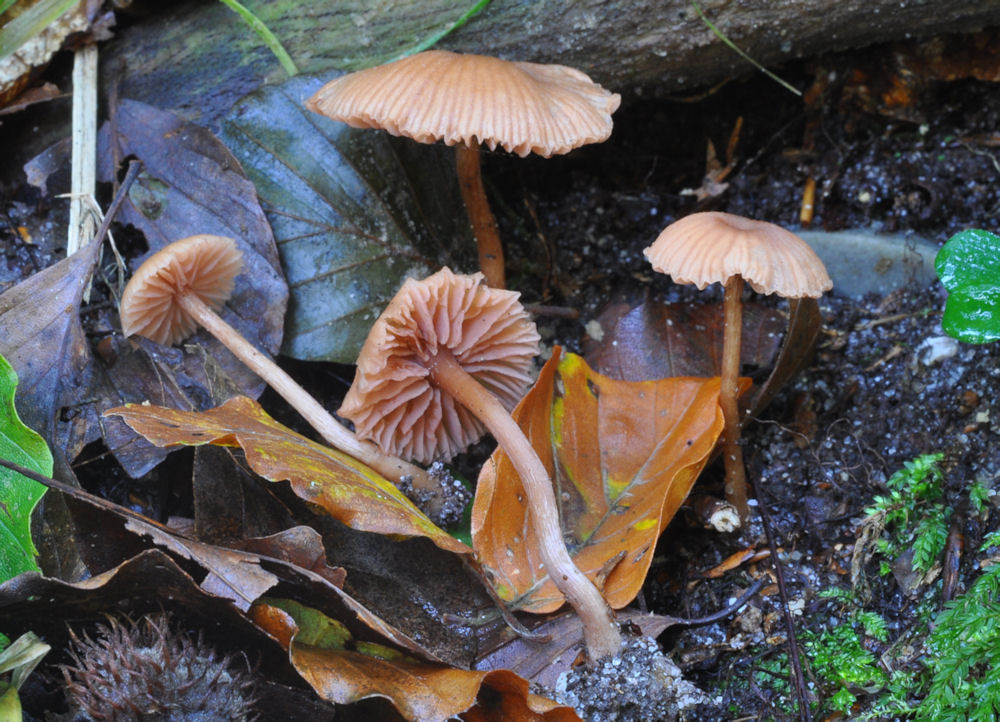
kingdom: Fungi
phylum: Basidiomycota
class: Agaricomycetes
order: Agaricales
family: Hydnangiaceae
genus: Laccaria
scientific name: Laccaria fraterna
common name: pilemose-ametysthat
